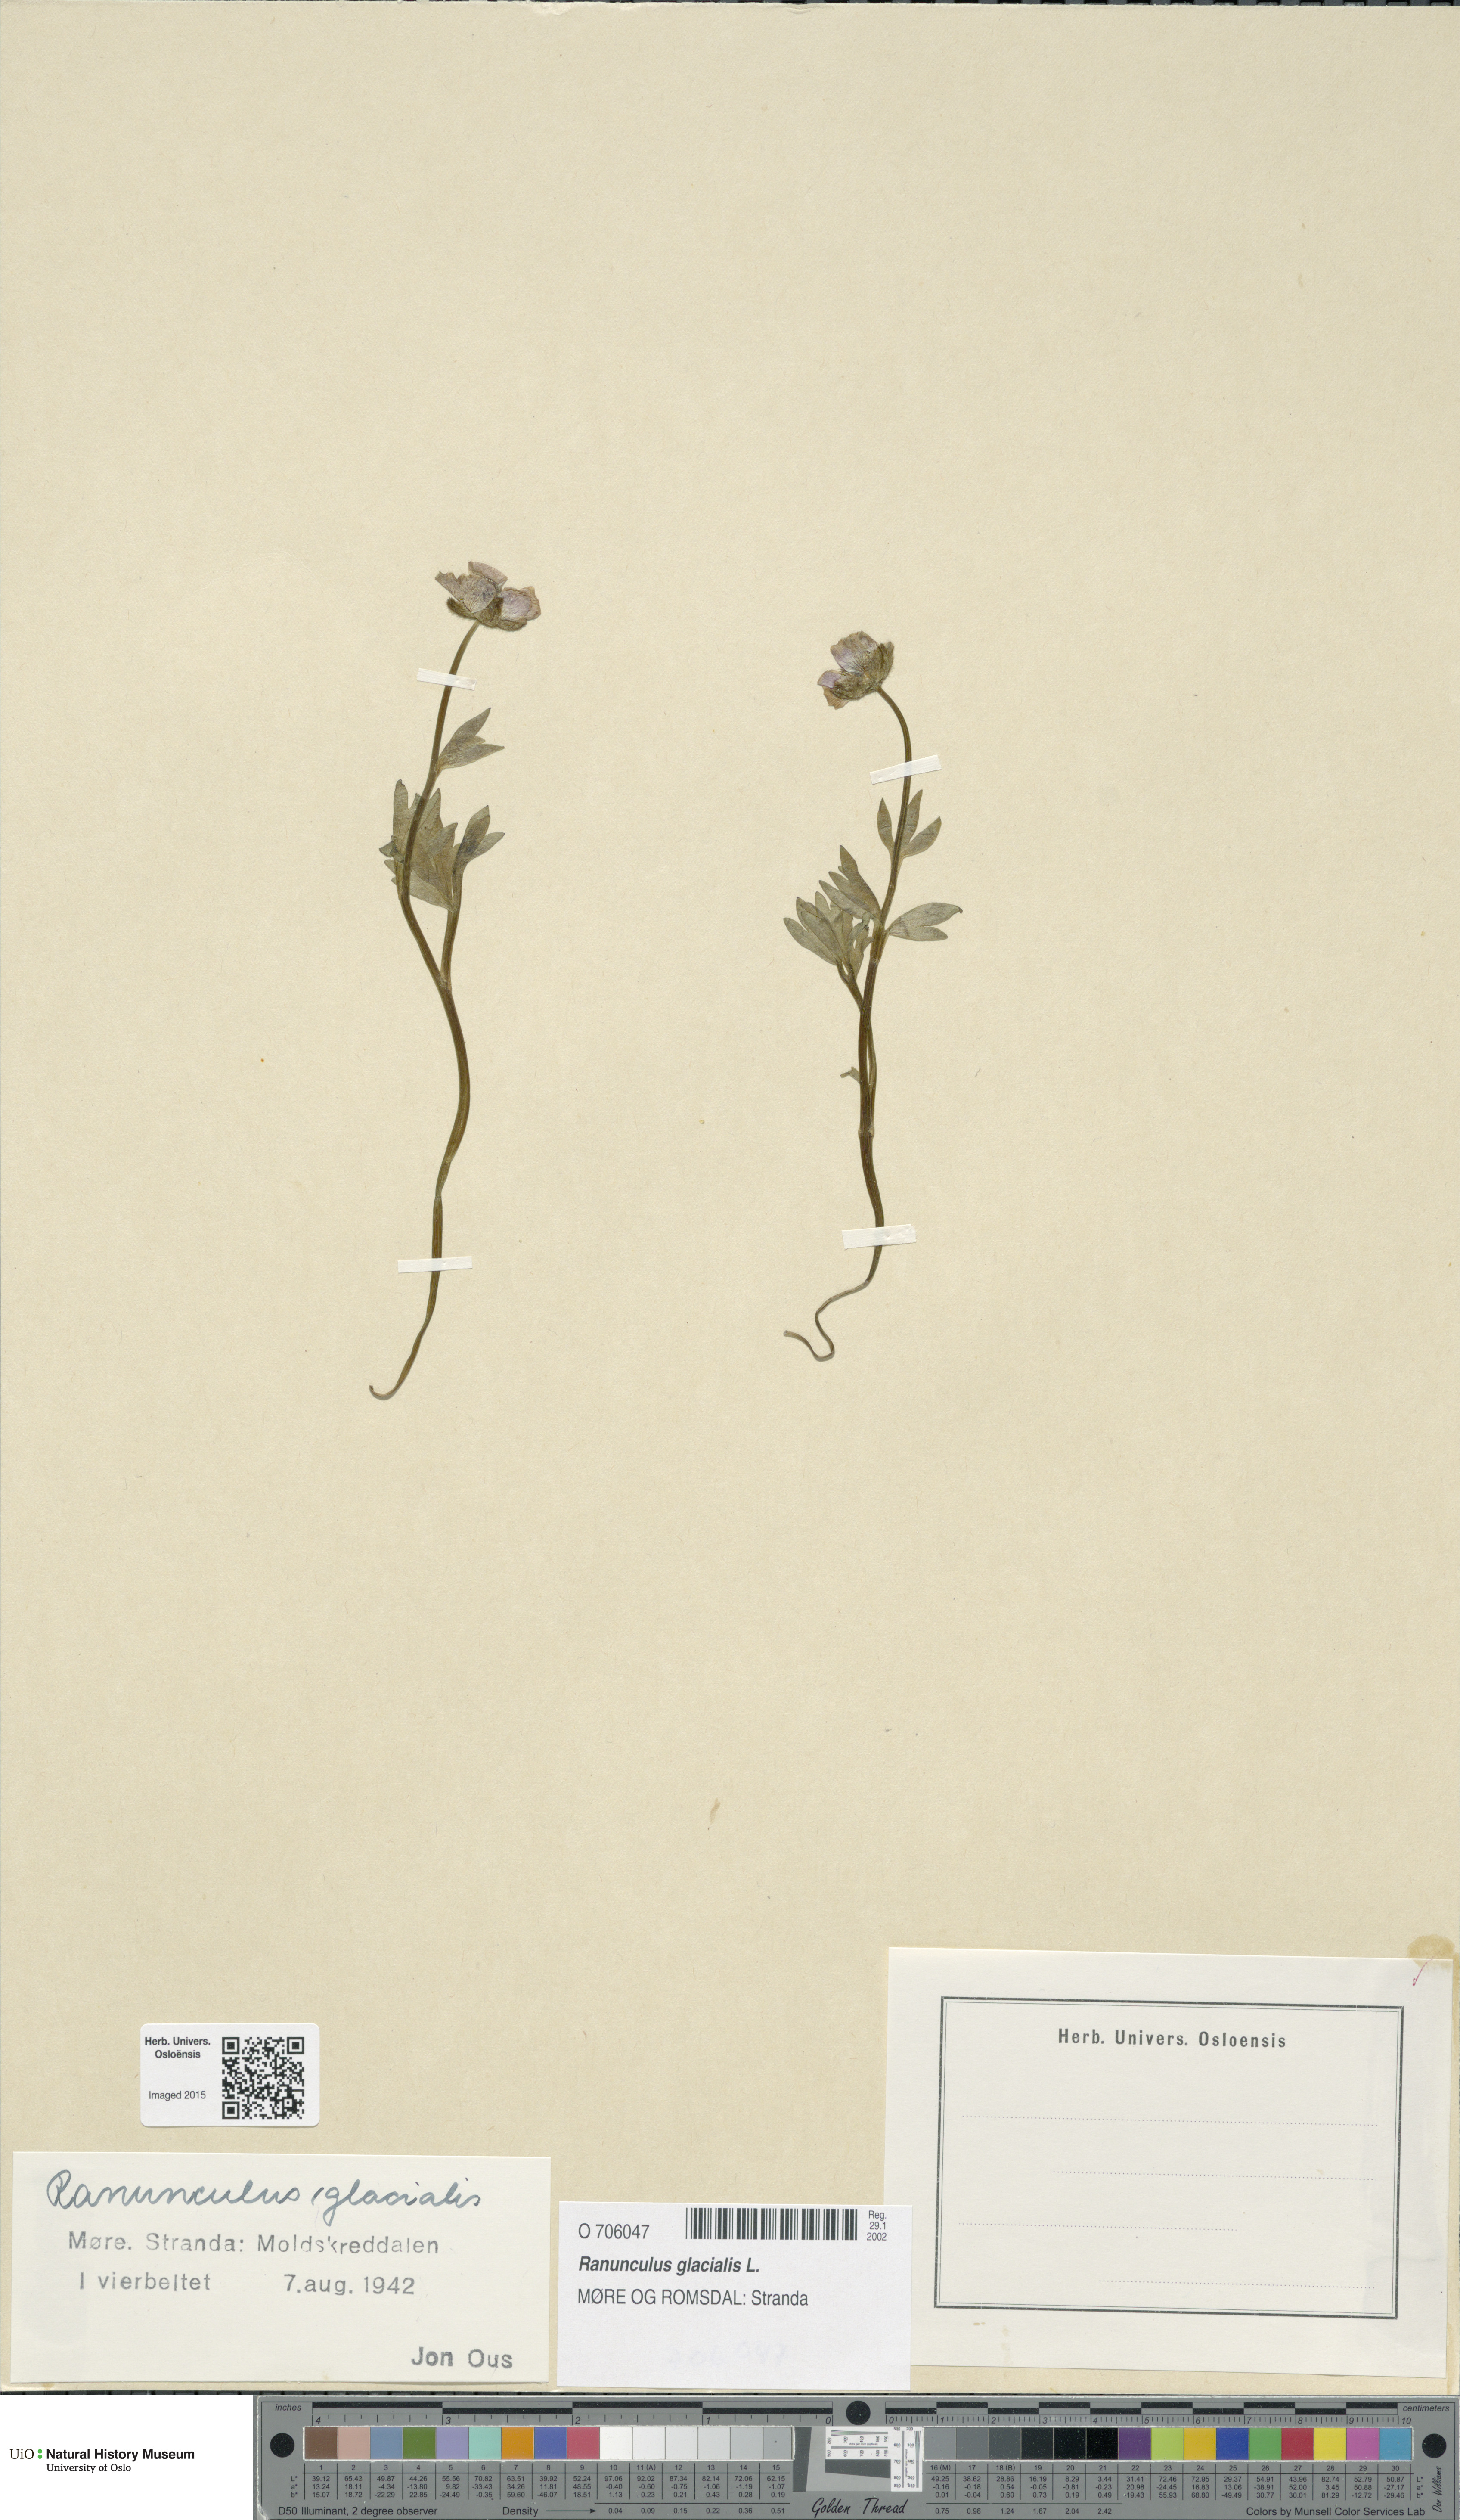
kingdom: Plantae
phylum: Tracheophyta
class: Magnoliopsida
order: Ranunculales
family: Ranunculaceae
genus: Ranunculus
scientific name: Ranunculus glacialis
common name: Glacier buttercup
